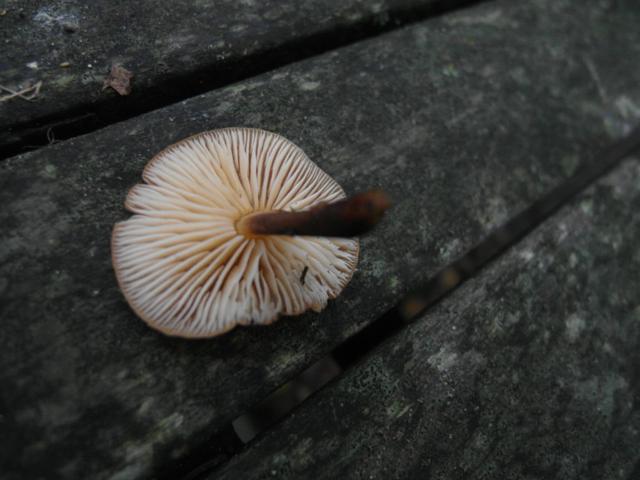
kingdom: Fungi
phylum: Basidiomycota
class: Agaricomycetes
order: Agaricales
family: Physalacriaceae
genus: Flammulina
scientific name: Flammulina velutipes
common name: gul fløjlsfod
